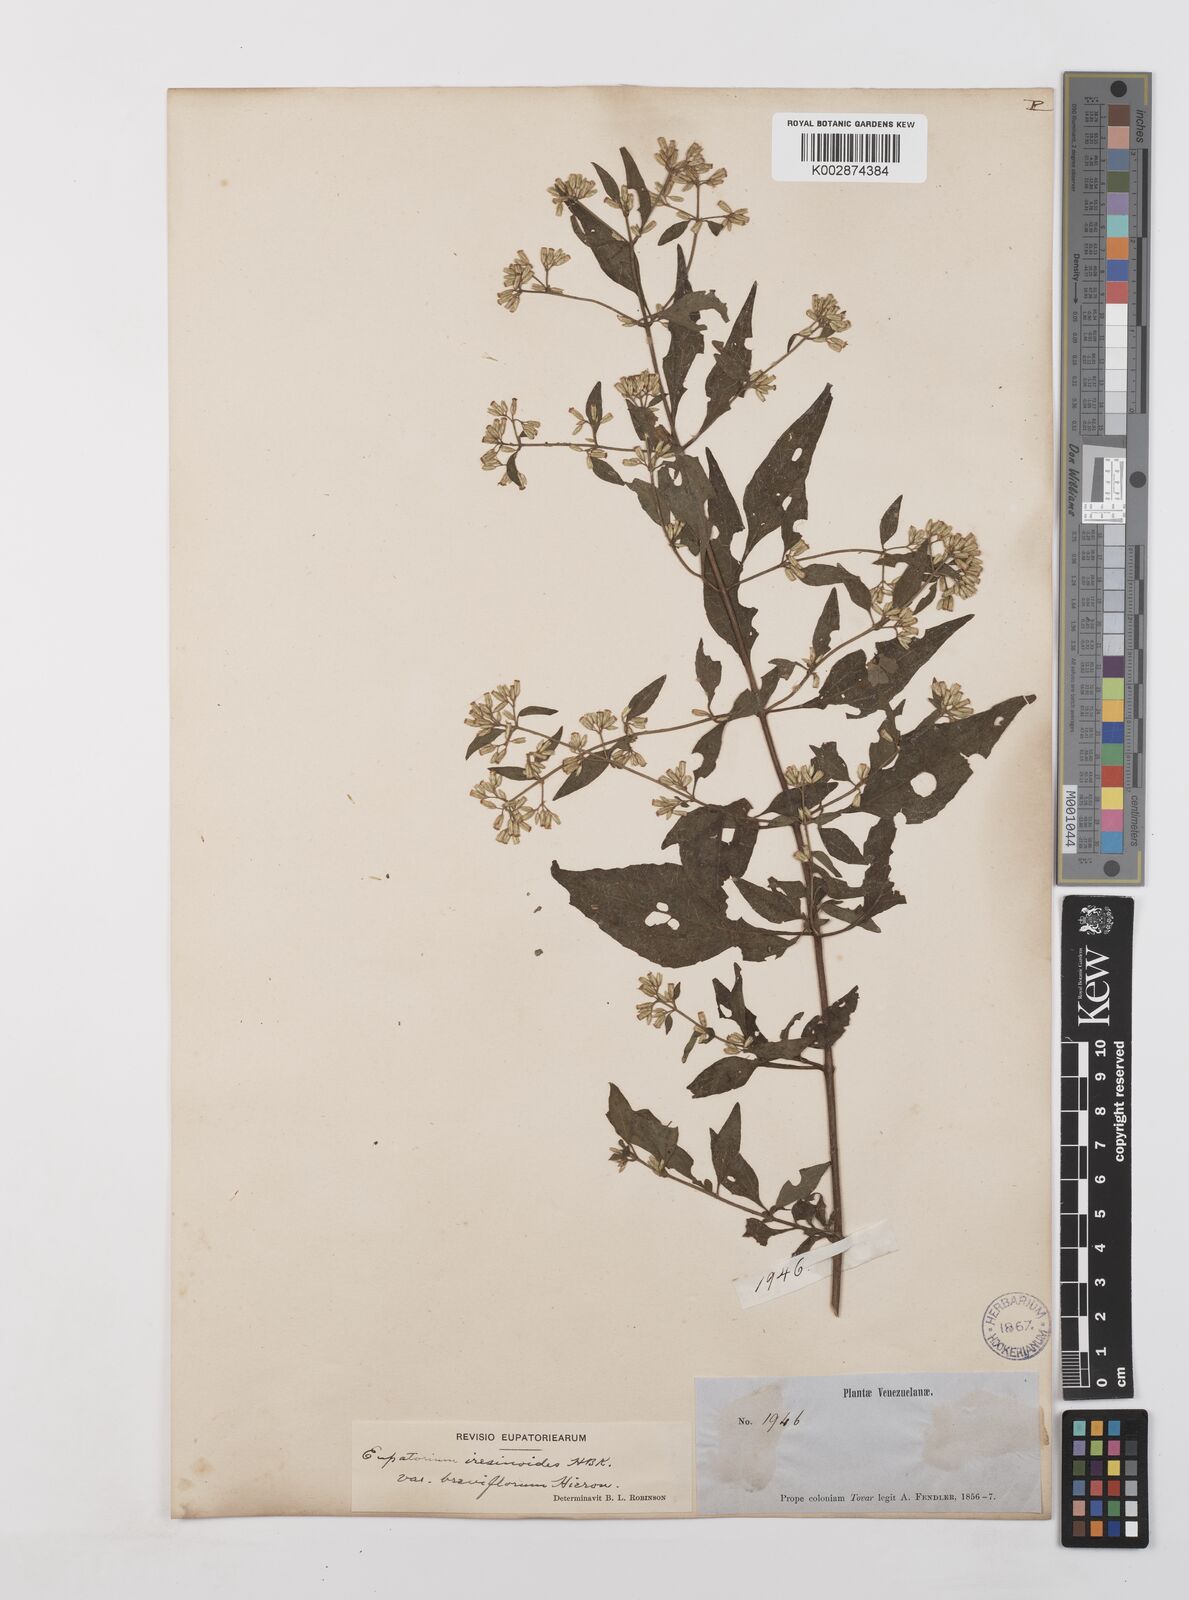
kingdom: Plantae
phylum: Tracheophyta
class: Magnoliopsida
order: Asterales
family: Asteraceae
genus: Condylidium
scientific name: Condylidium iresinoides
